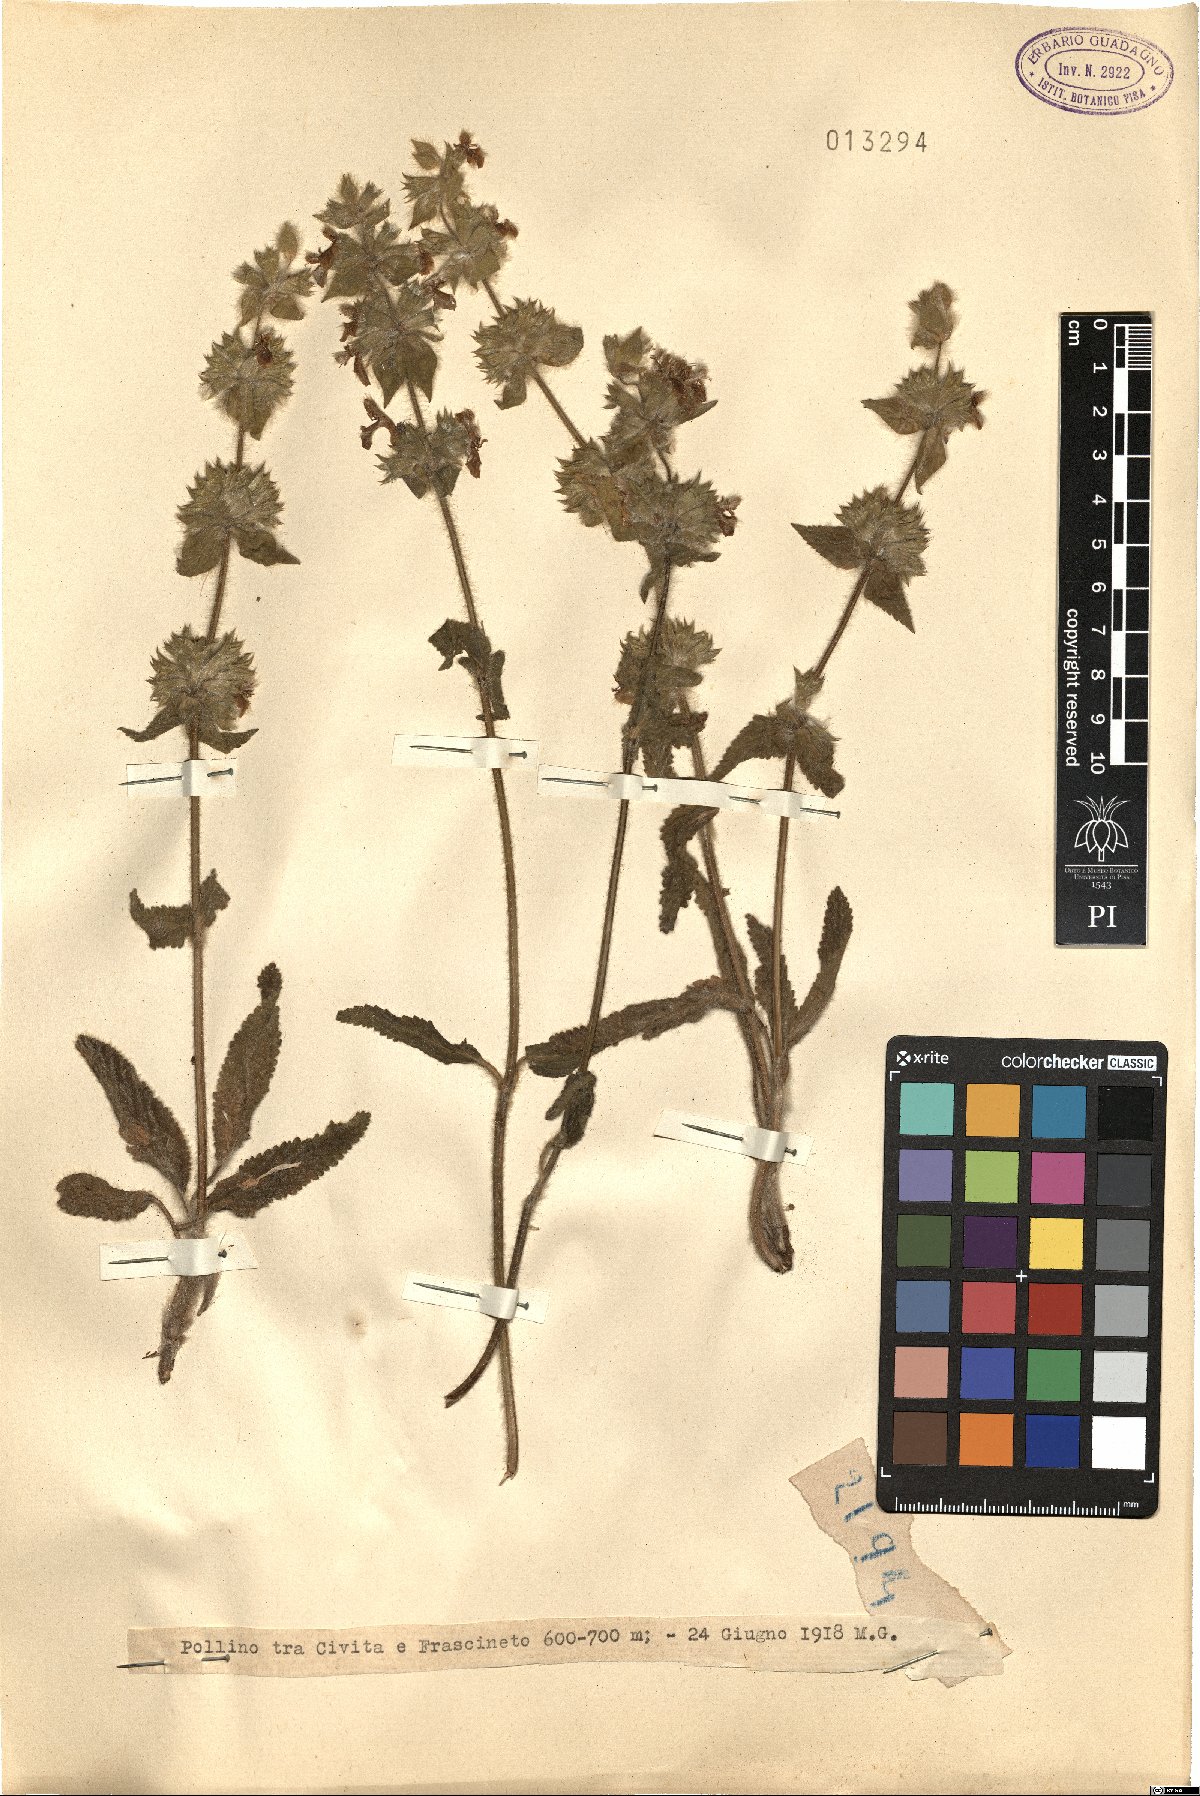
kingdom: Plantae
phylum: Tracheophyta
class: Magnoliopsida
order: Lamiales
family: Lamiaceae
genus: Stachys
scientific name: Stachys
